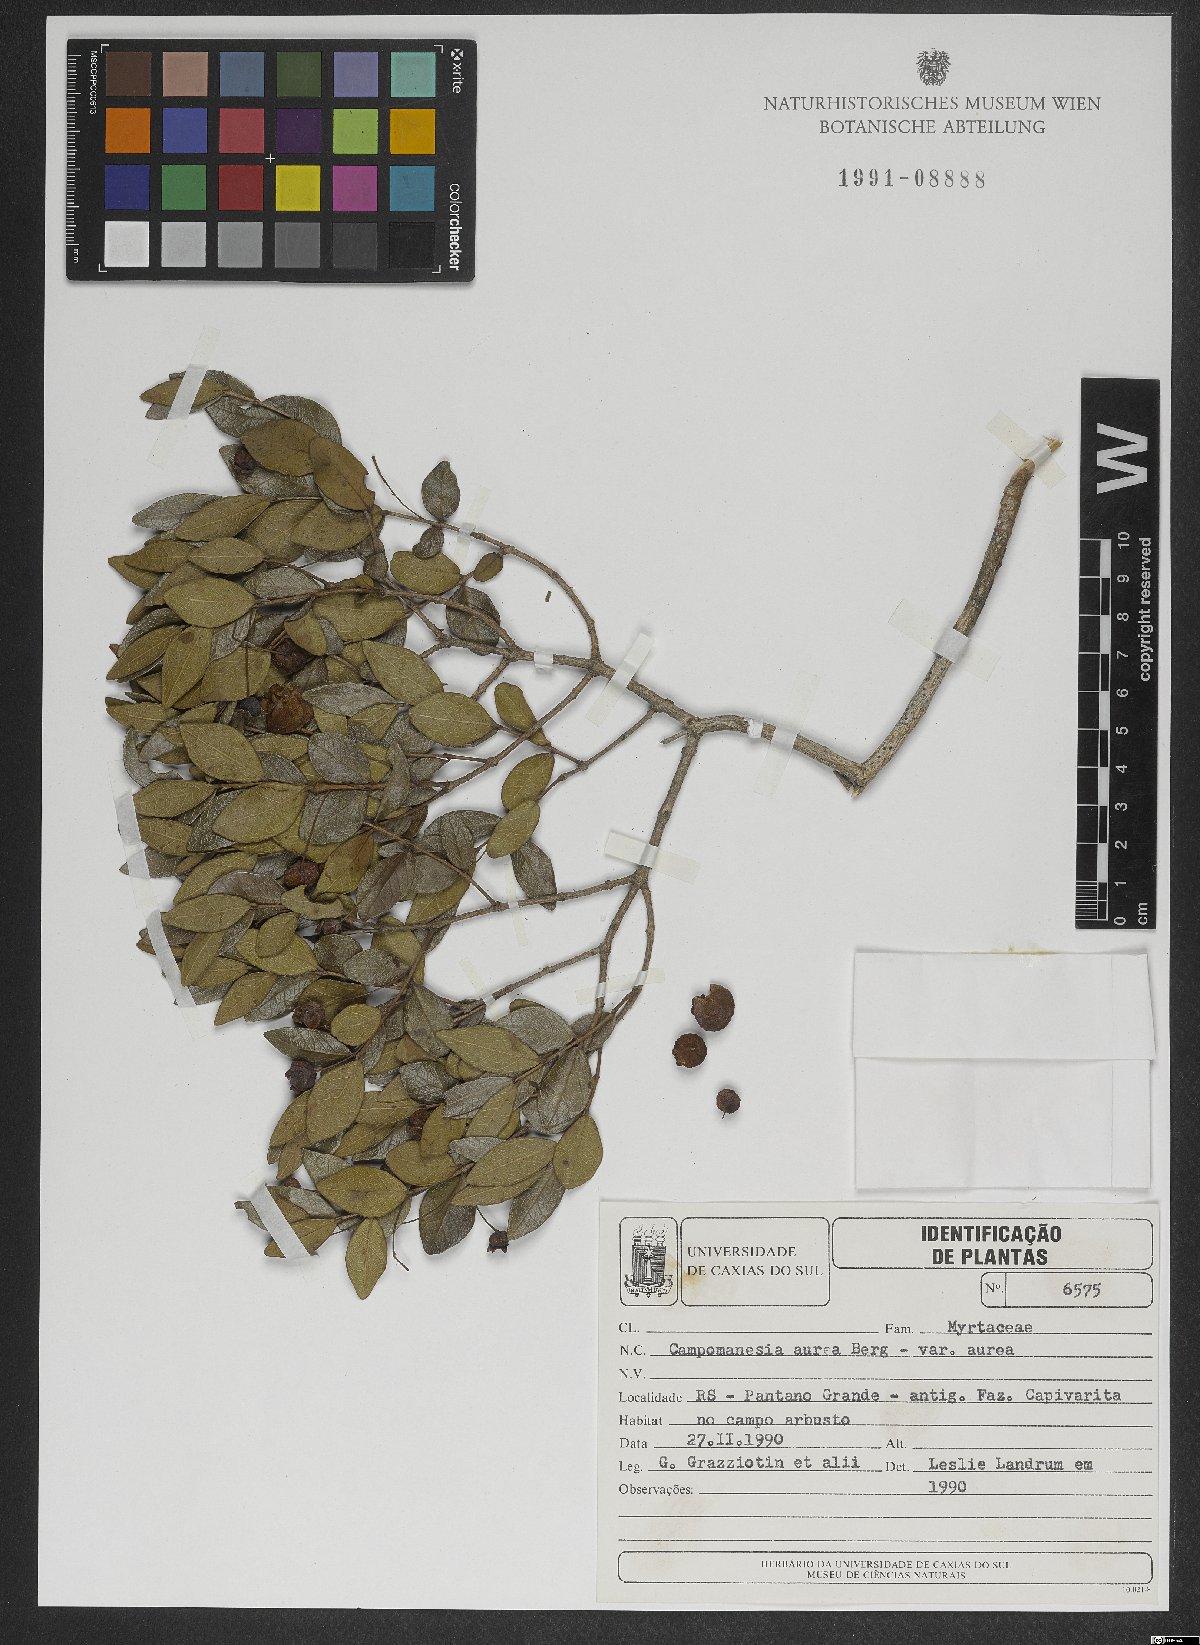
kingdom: Plantae
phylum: Tracheophyta
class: Magnoliopsida
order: Myrtales
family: Myrtaceae
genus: Campomanesia
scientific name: Campomanesia aurea
